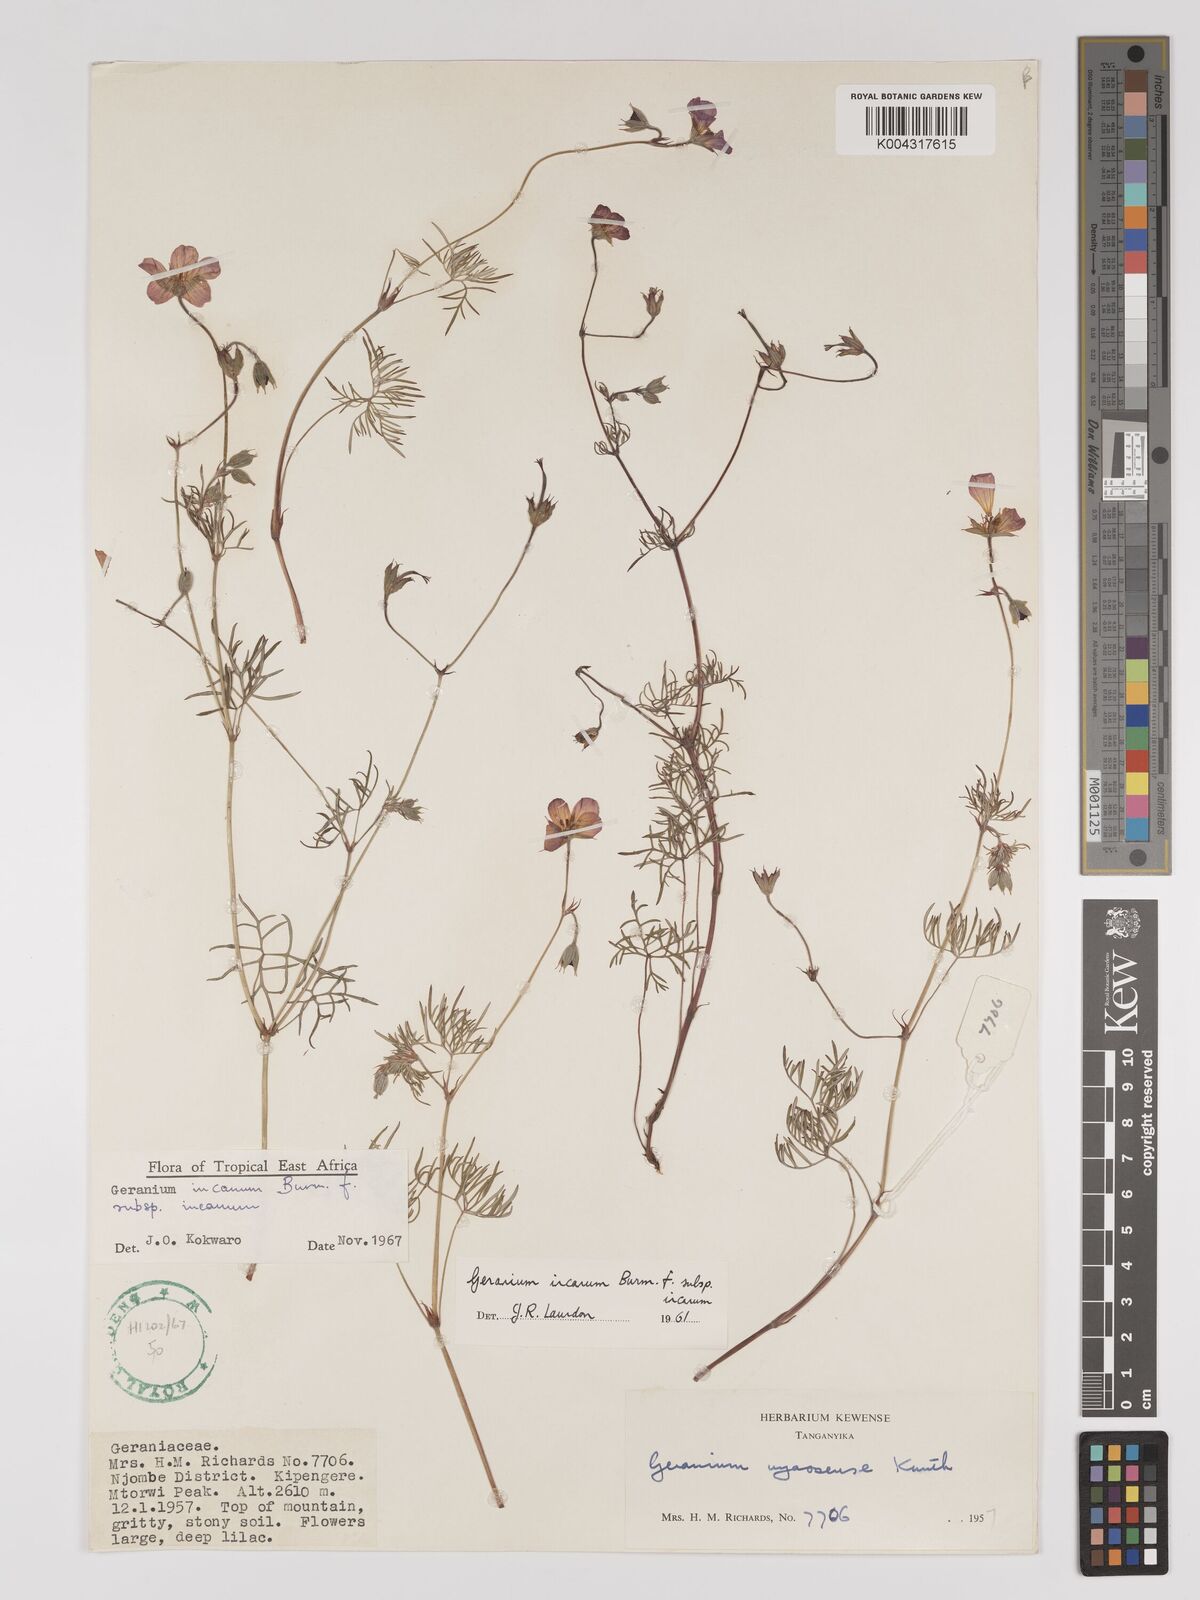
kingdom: Plantae
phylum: Tracheophyta
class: Magnoliopsida
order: Geraniales
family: Geraniaceae
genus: Geranium
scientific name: Geranium incanum
